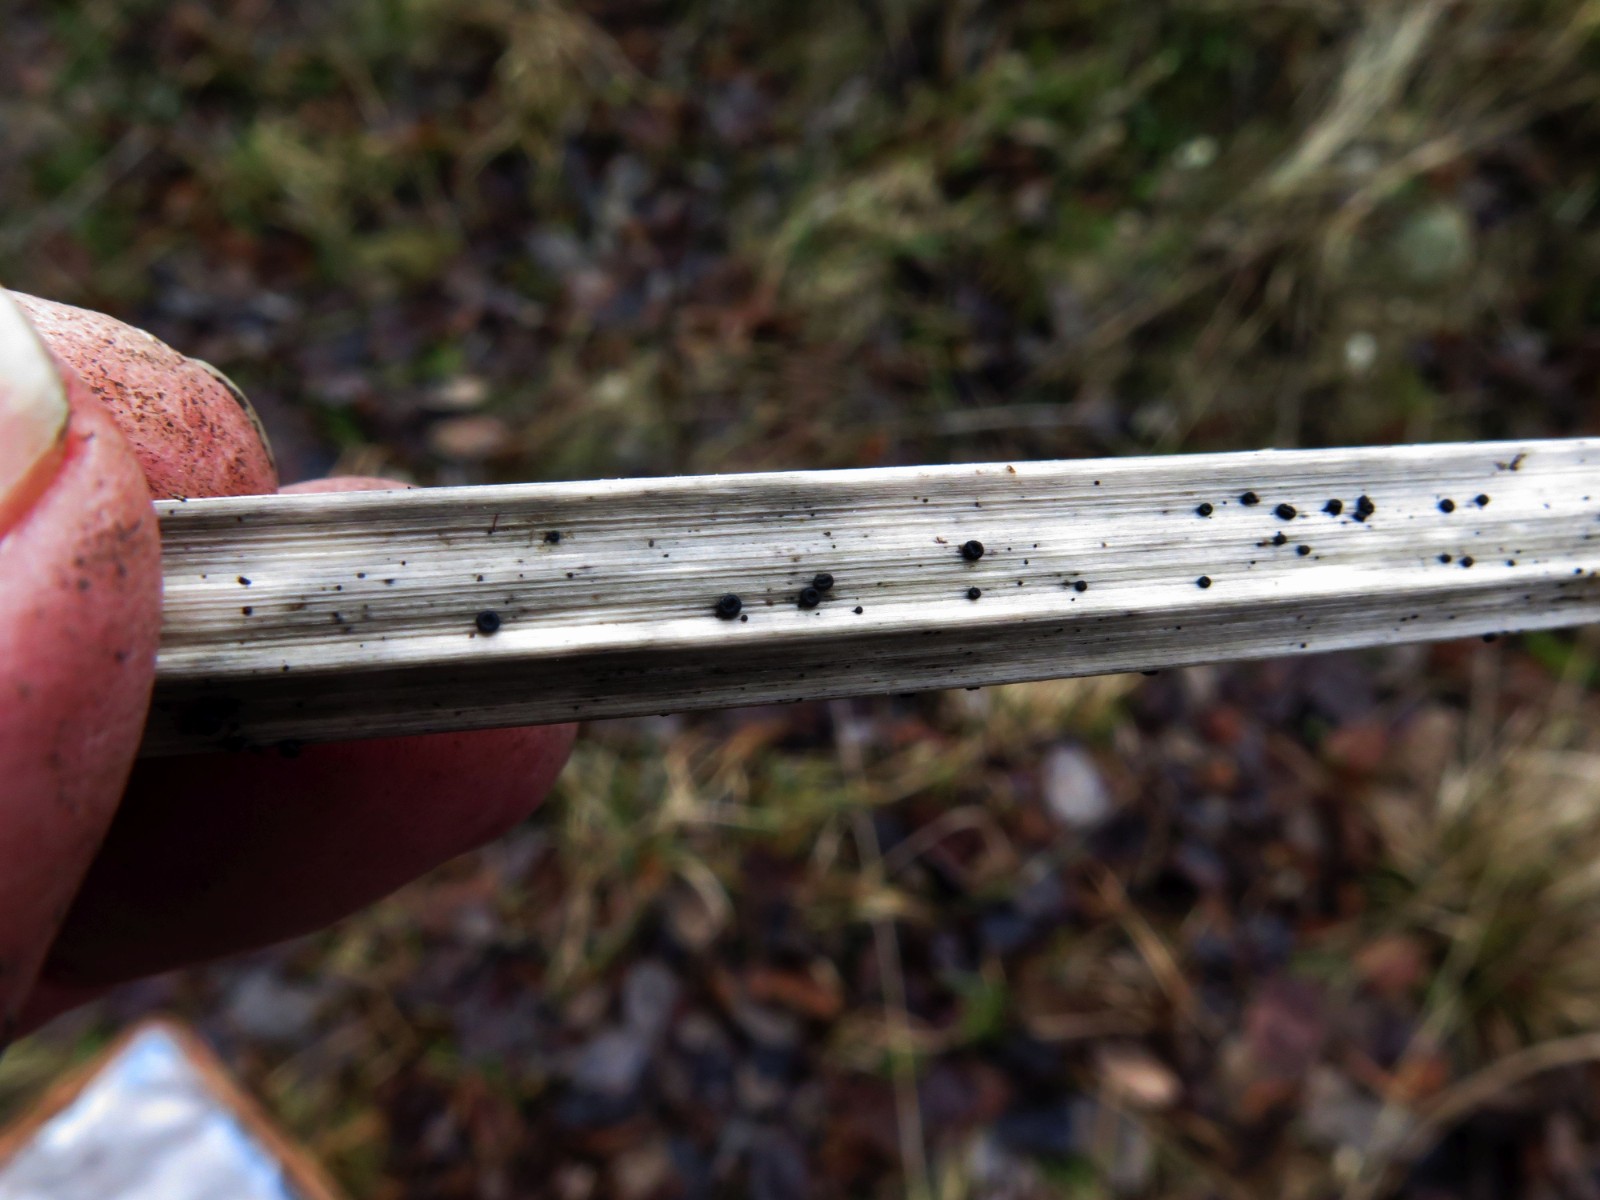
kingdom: Fungi
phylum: Ascomycota
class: Leotiomycetes
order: Helotiales
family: Heterosphaeriaceae
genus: Heterosphaeria
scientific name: Heterosphaeria
